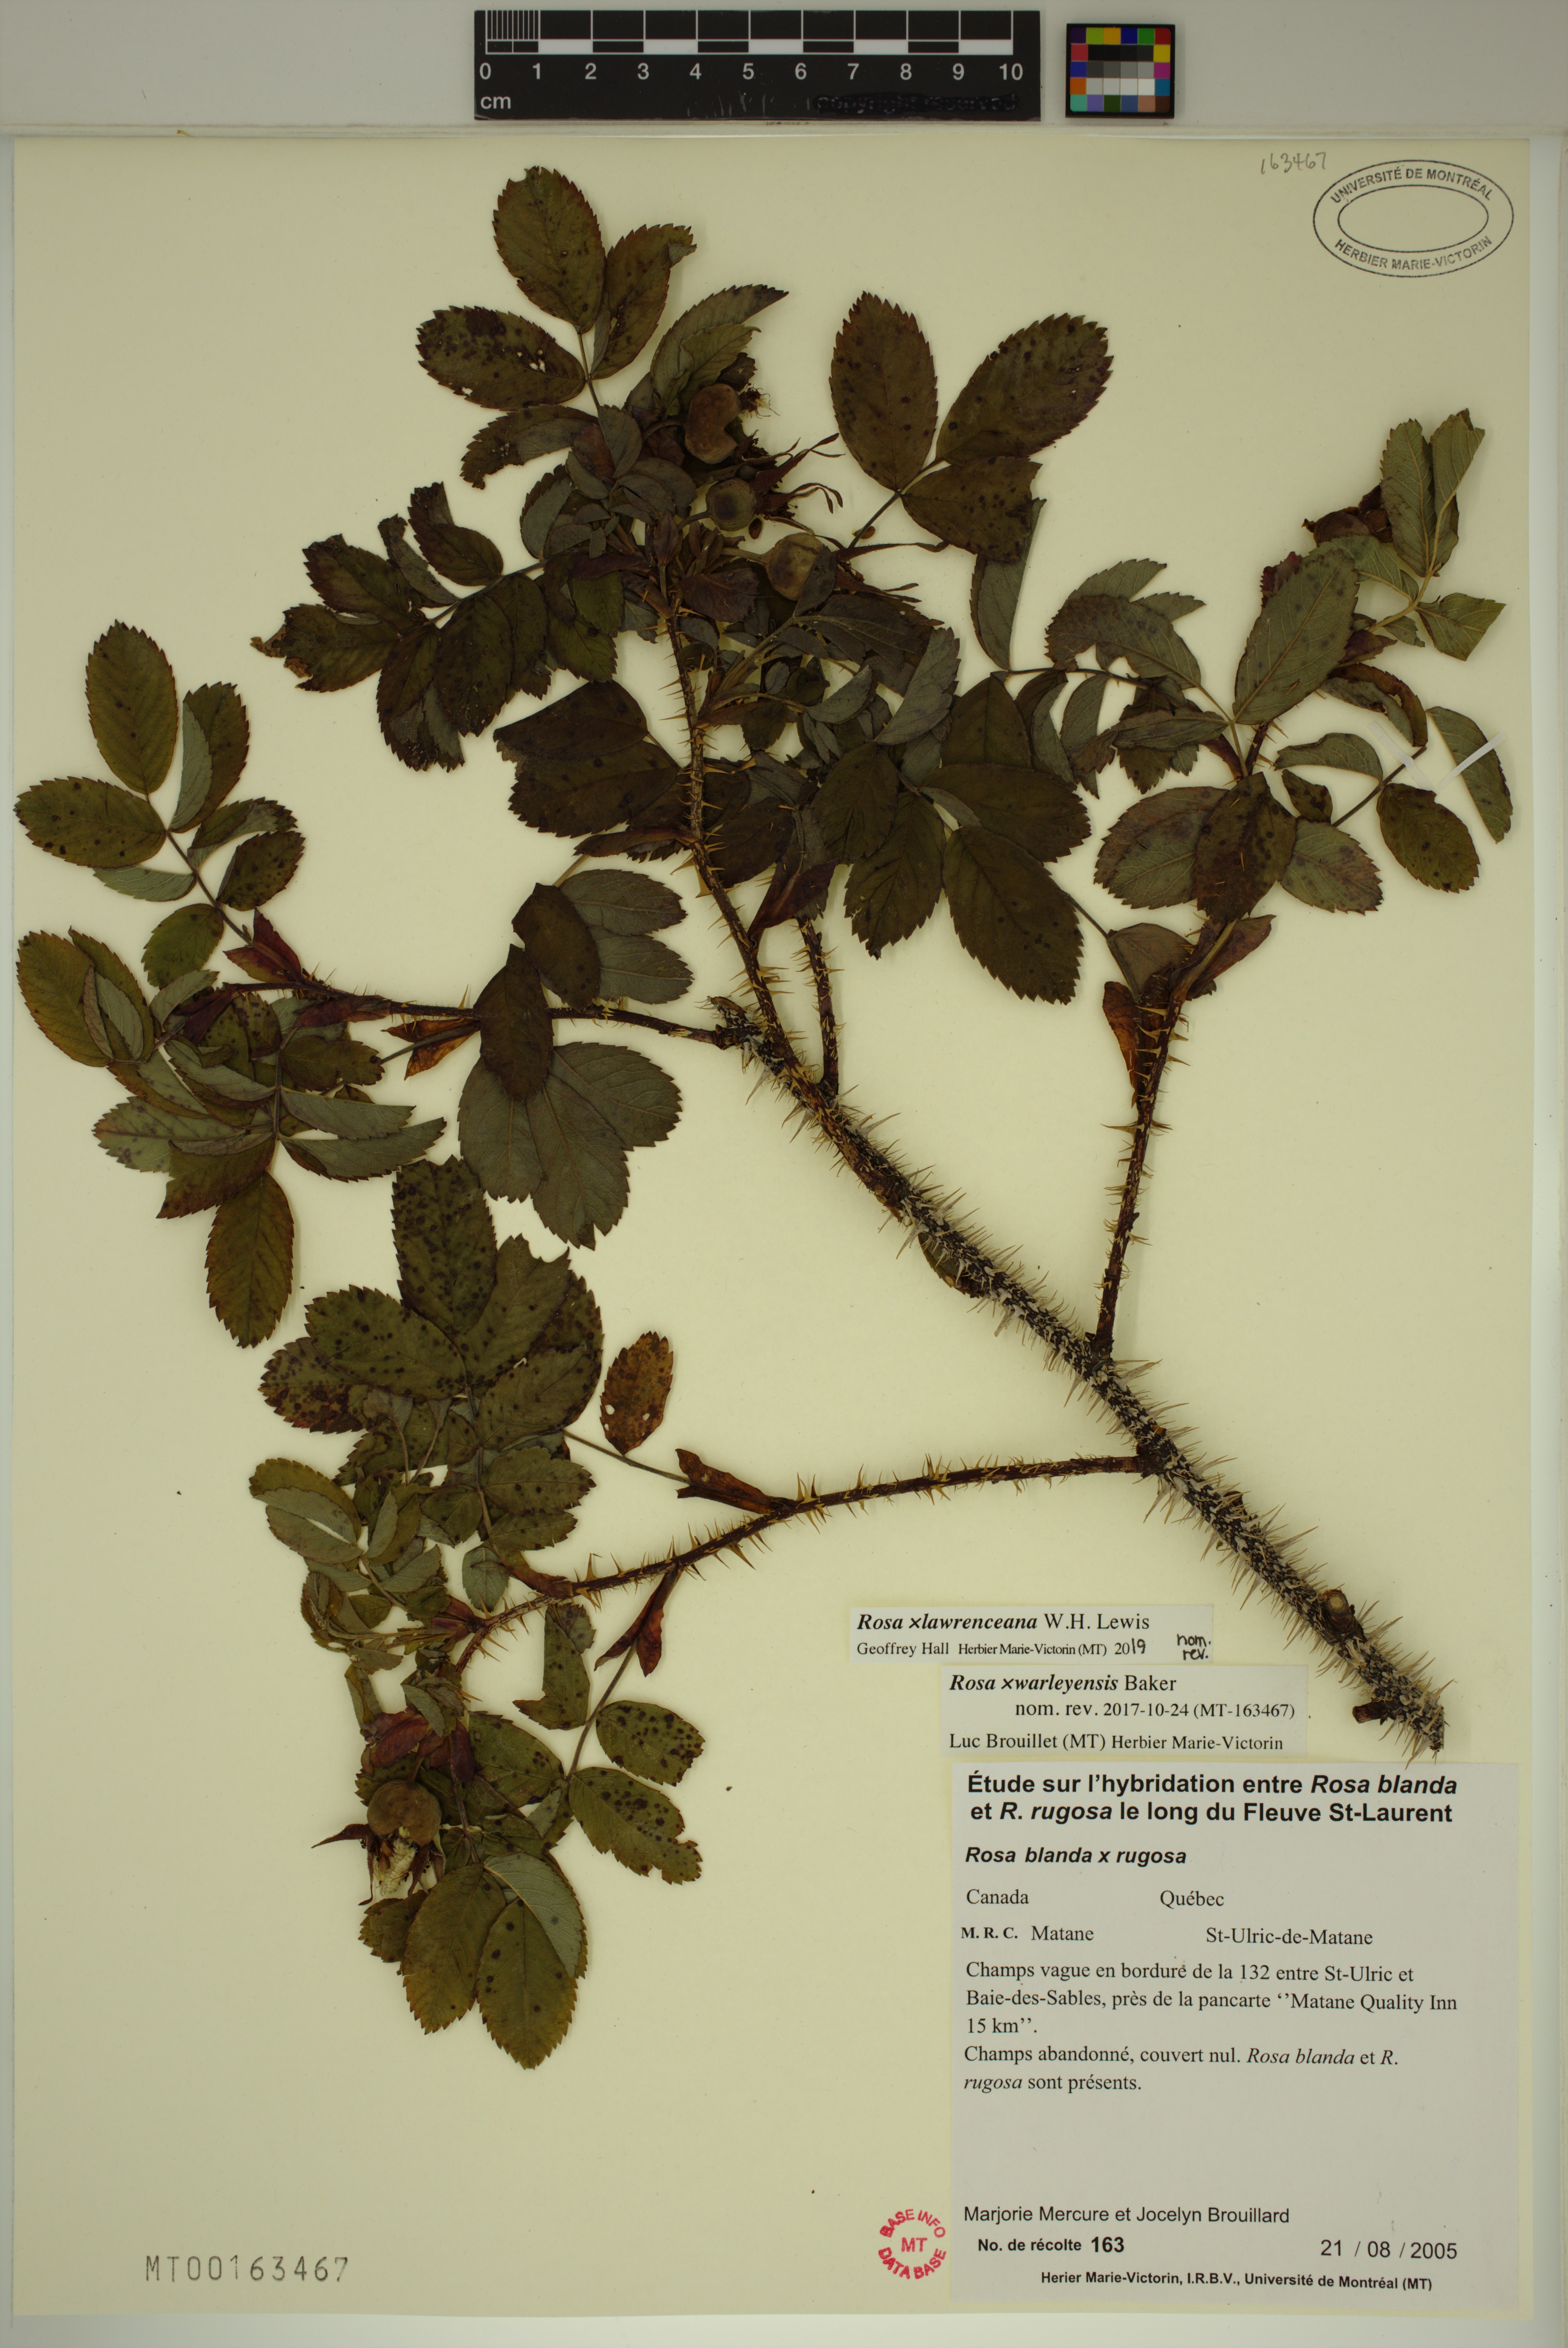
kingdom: Plantae
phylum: Tracheophyta
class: Magnoliopsida
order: Rosales
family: Rosaceae
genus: Rosa
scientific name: Rosa chinensis
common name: China rose
